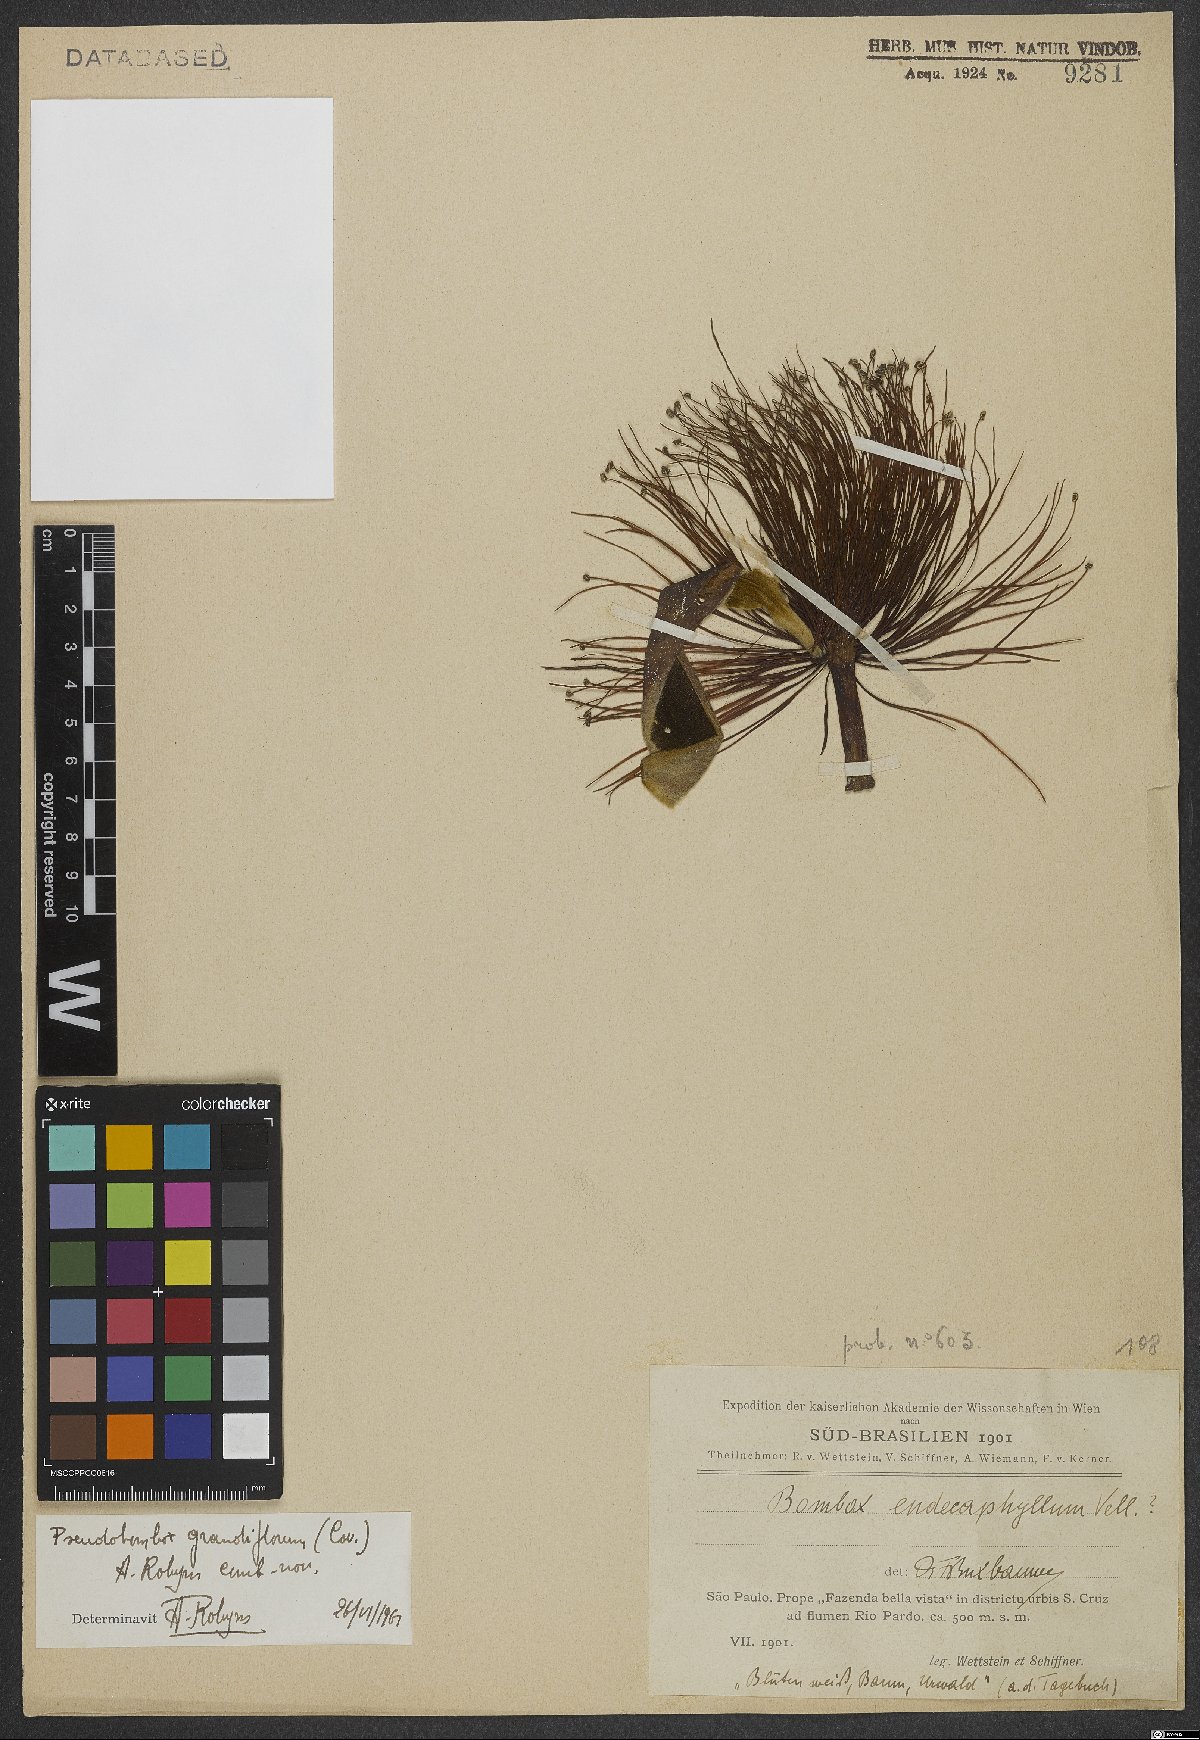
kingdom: Plantae
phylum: Tracheophyta
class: Magnoliopsida
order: Malvales
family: Malvaceae
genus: Pseudobombax
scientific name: Pseudobombax grandiflorum
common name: Brazilian shaving-brush-tree
